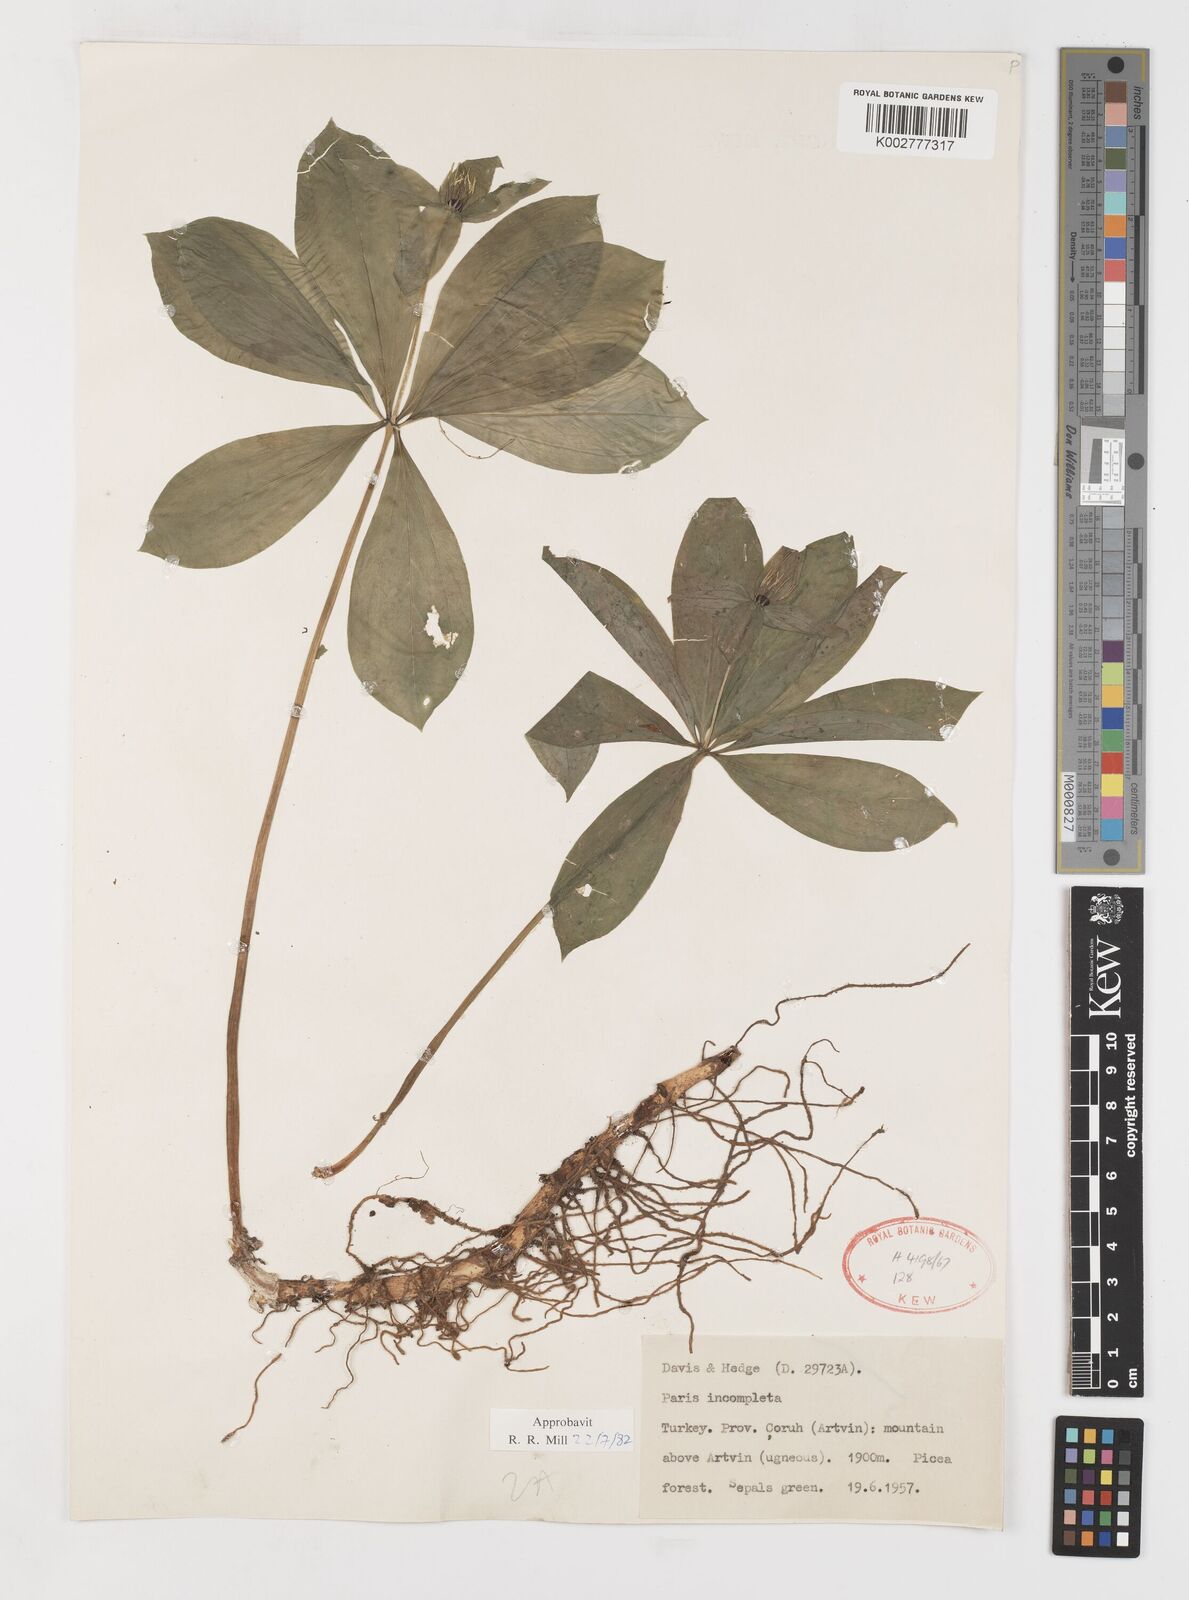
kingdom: Plantae
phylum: Tracheophyta
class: Liliopsida
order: Liliales
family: Melanthiaceae
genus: Paris
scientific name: Paris quadrifolia
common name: Herb-paris
